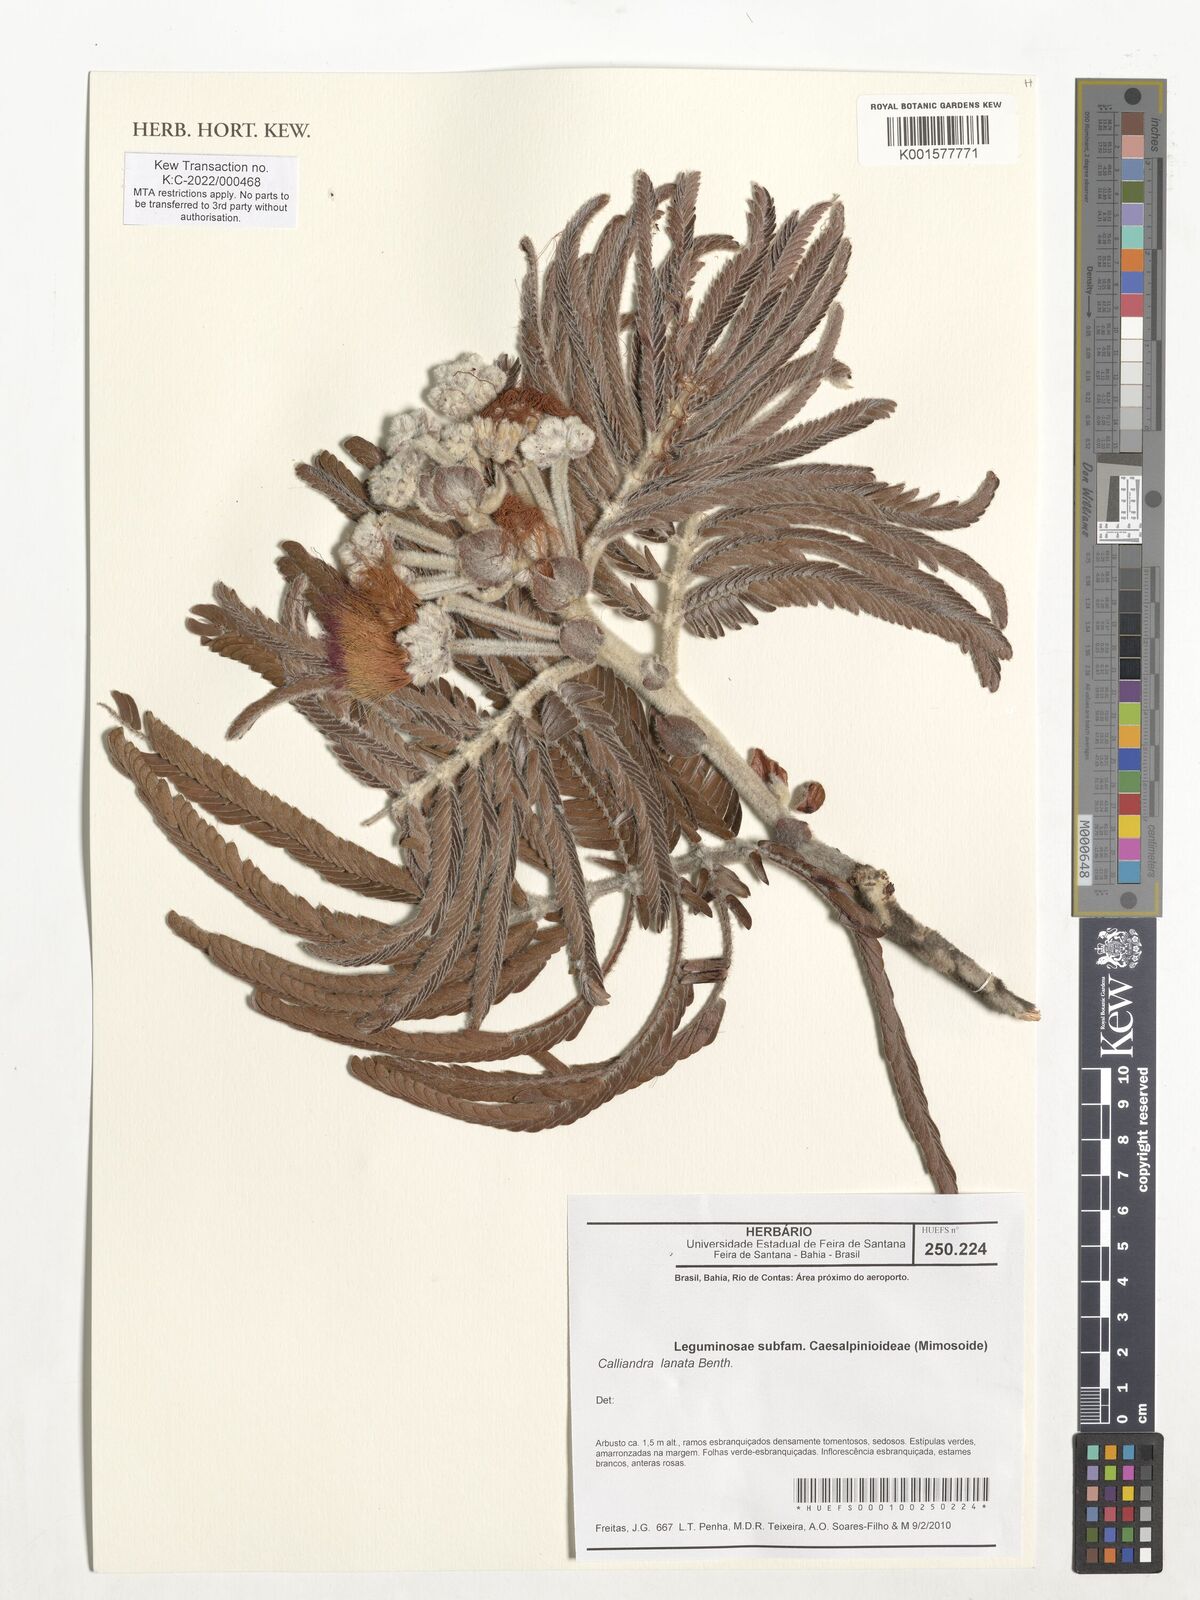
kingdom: Plantae
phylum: Tracheophyta
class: Magnoliopsida
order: Fabales
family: Fabaceae
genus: Calliandra
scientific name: Calliandra lanata
